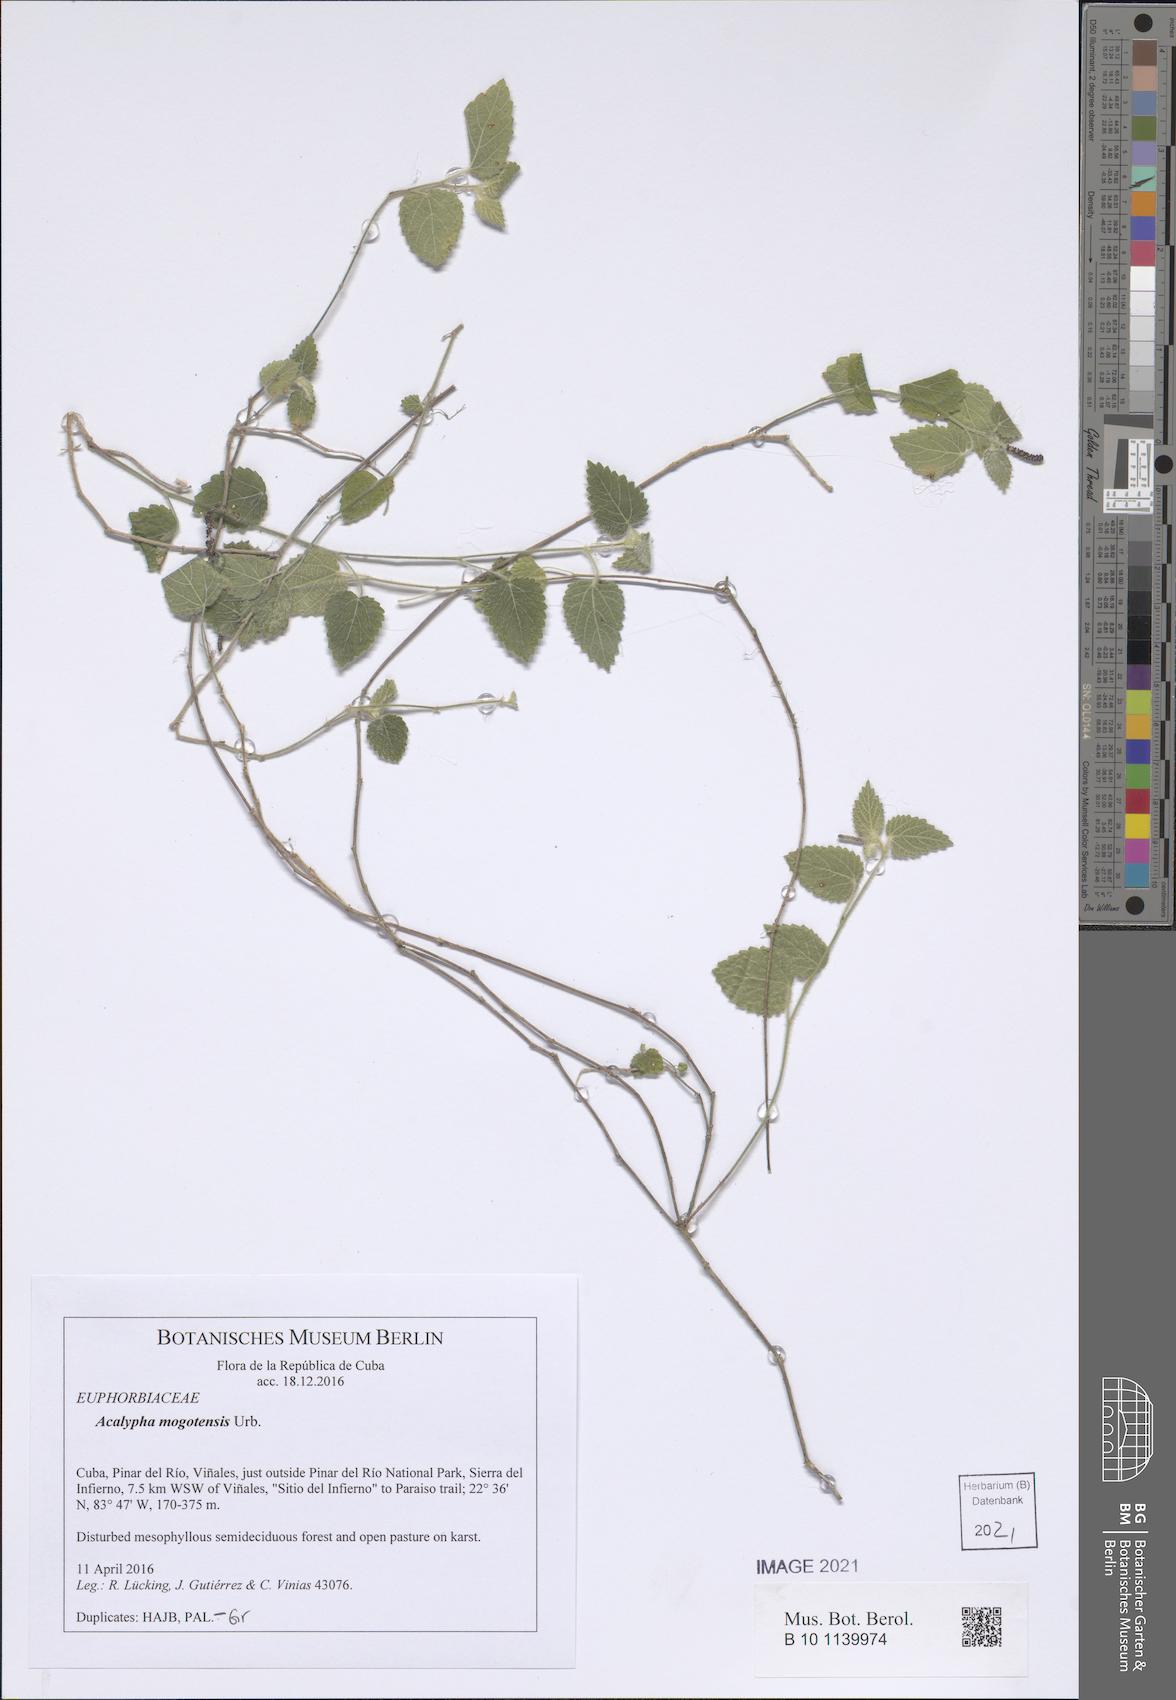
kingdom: Plantae
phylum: Tracheophyta
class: Magnoliopsida
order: Malpighiales
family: Euphorbiaceae
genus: Acalypha
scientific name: Acalypha mogotensis
